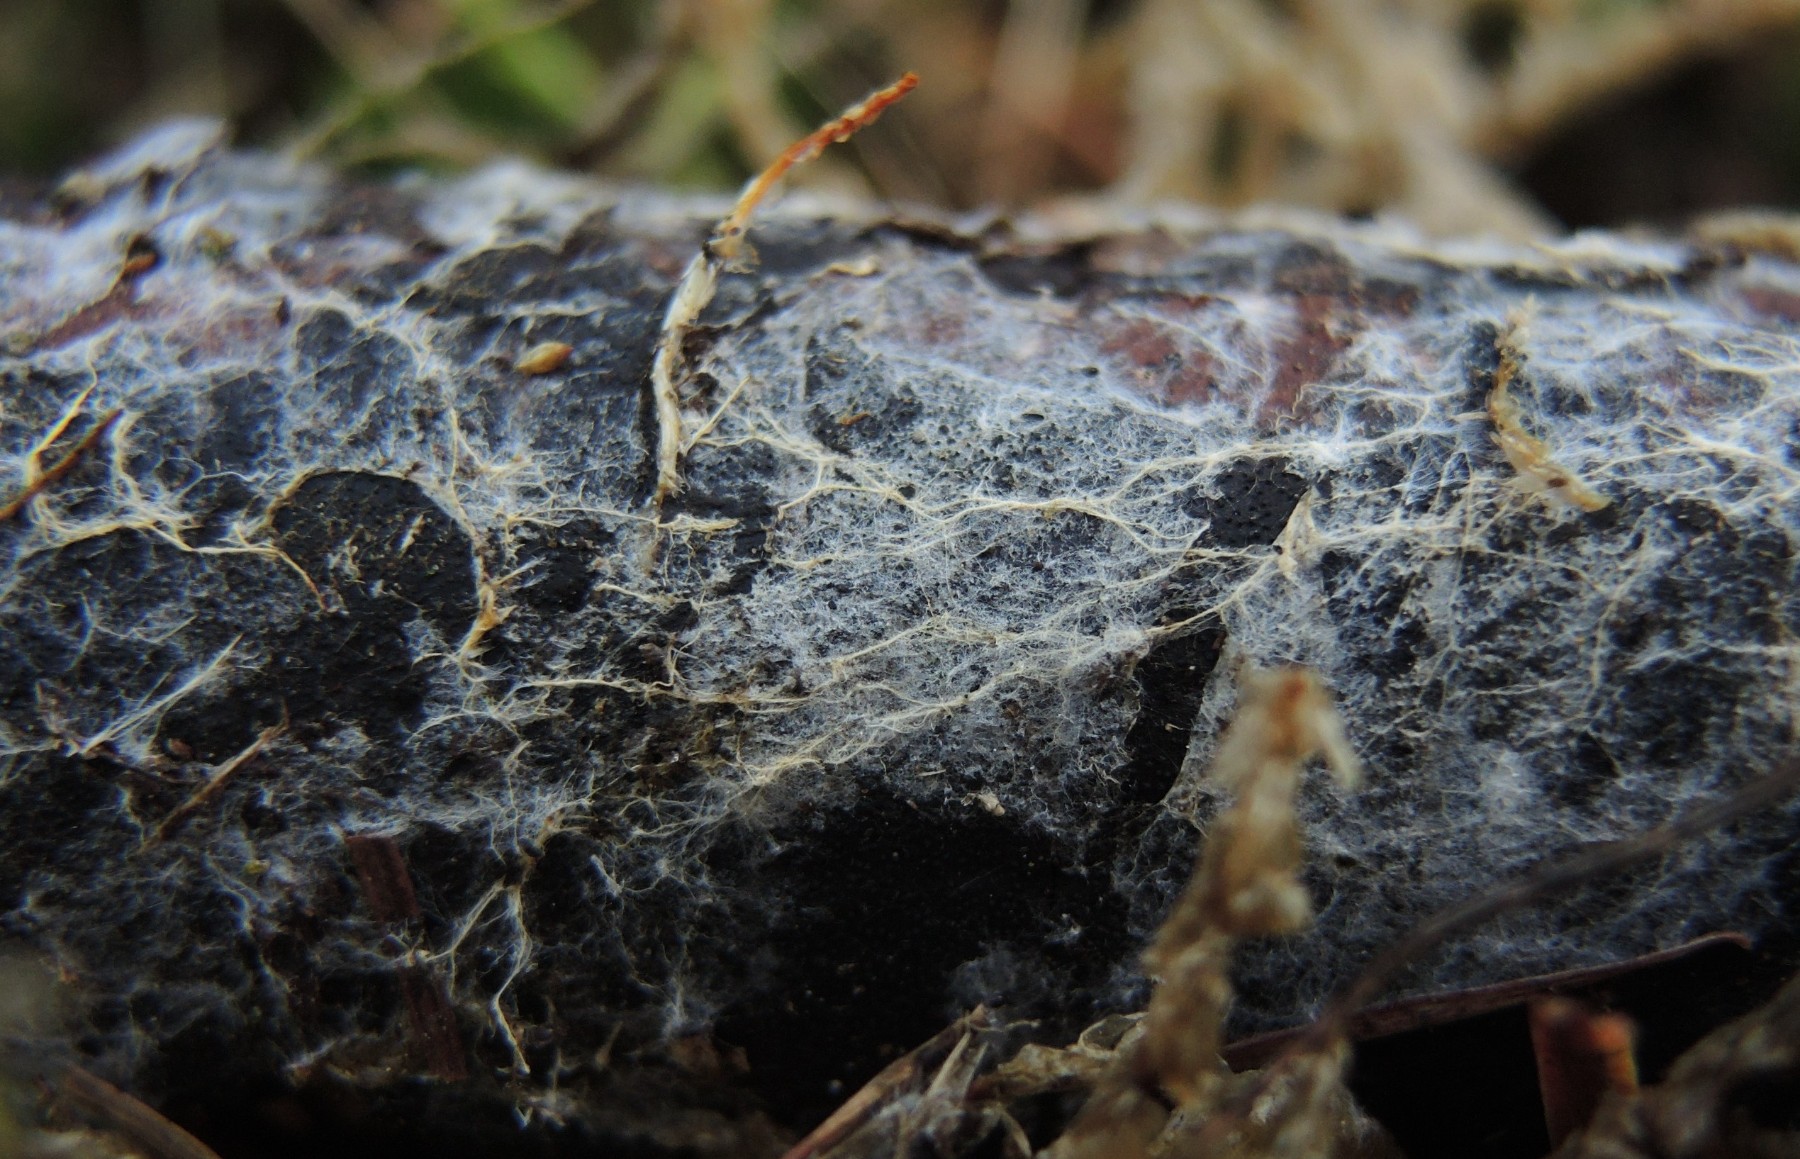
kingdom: Fungi
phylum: Basidiomycota
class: Agaricomycetes
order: Atheliales
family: Atheliaceae
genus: Leptosporomyces
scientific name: Leptosporomyces fuscostratus
